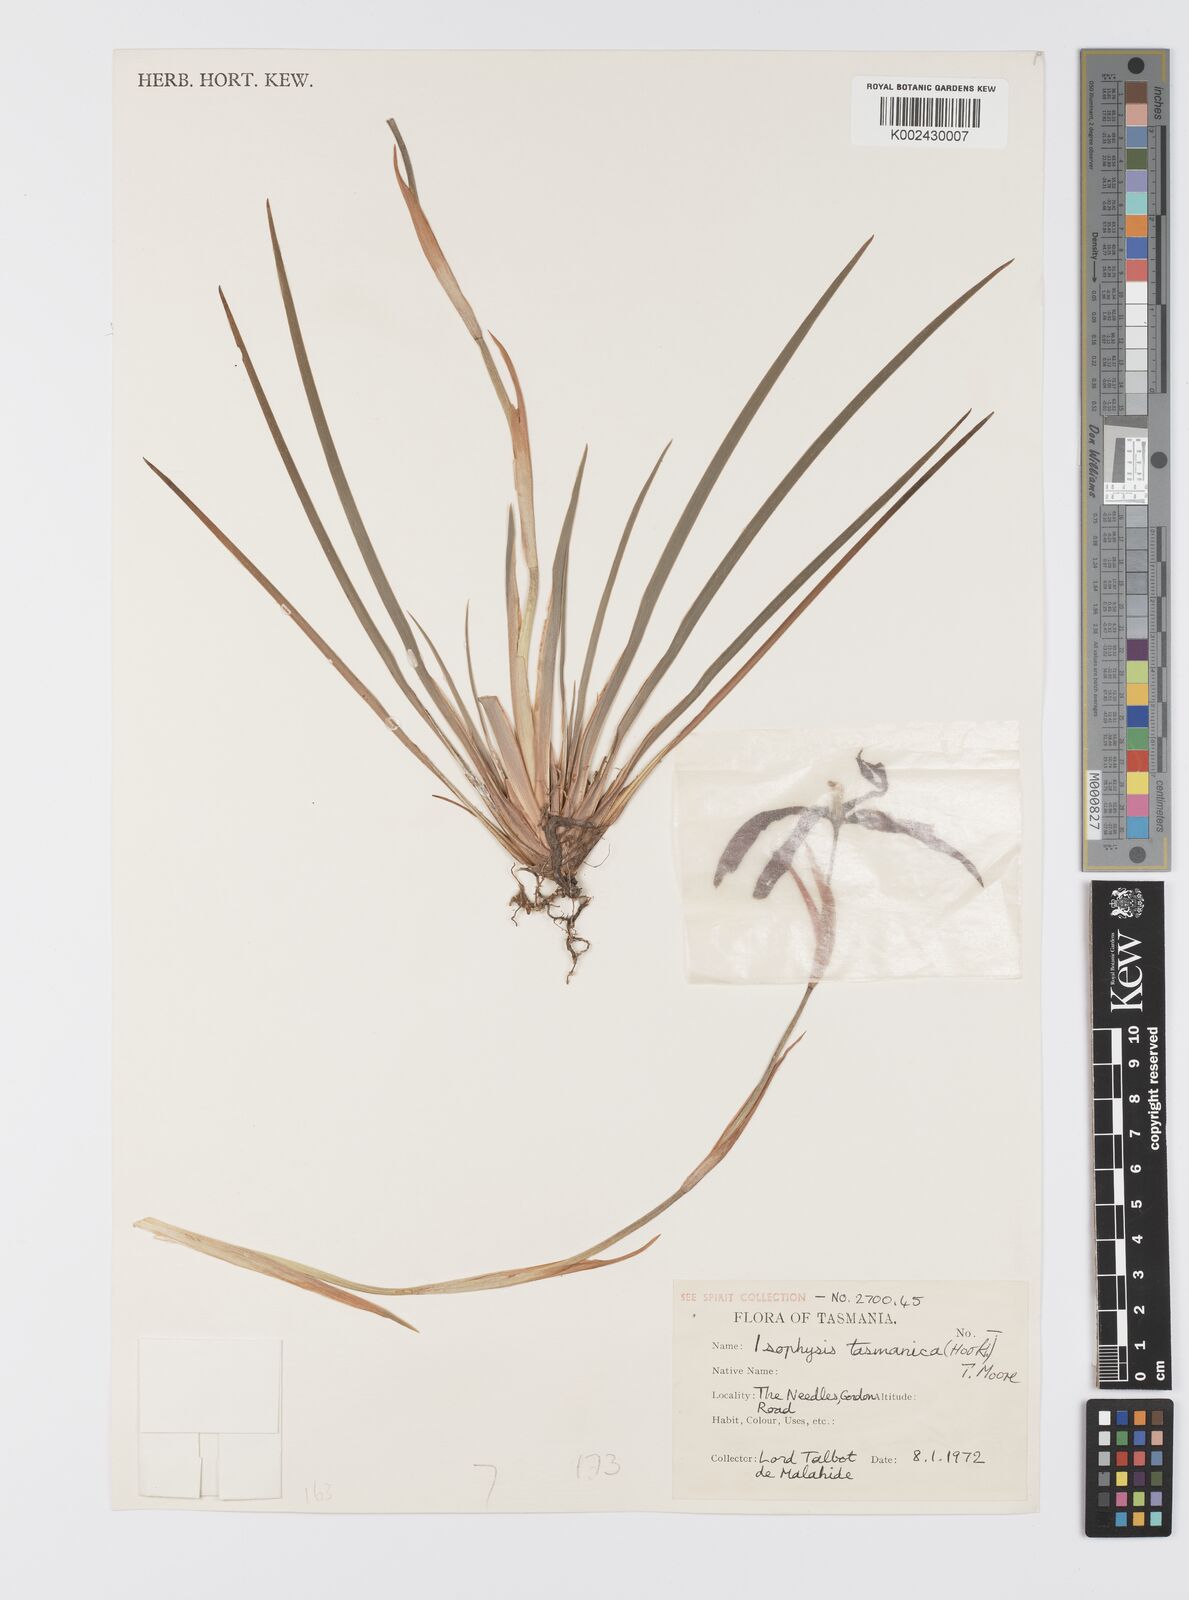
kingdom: Plantae
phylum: Tracheophyta
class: Liliopsida
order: Asparagales
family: Iridaceae
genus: Isophysis
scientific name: Isophysis tasmanica
